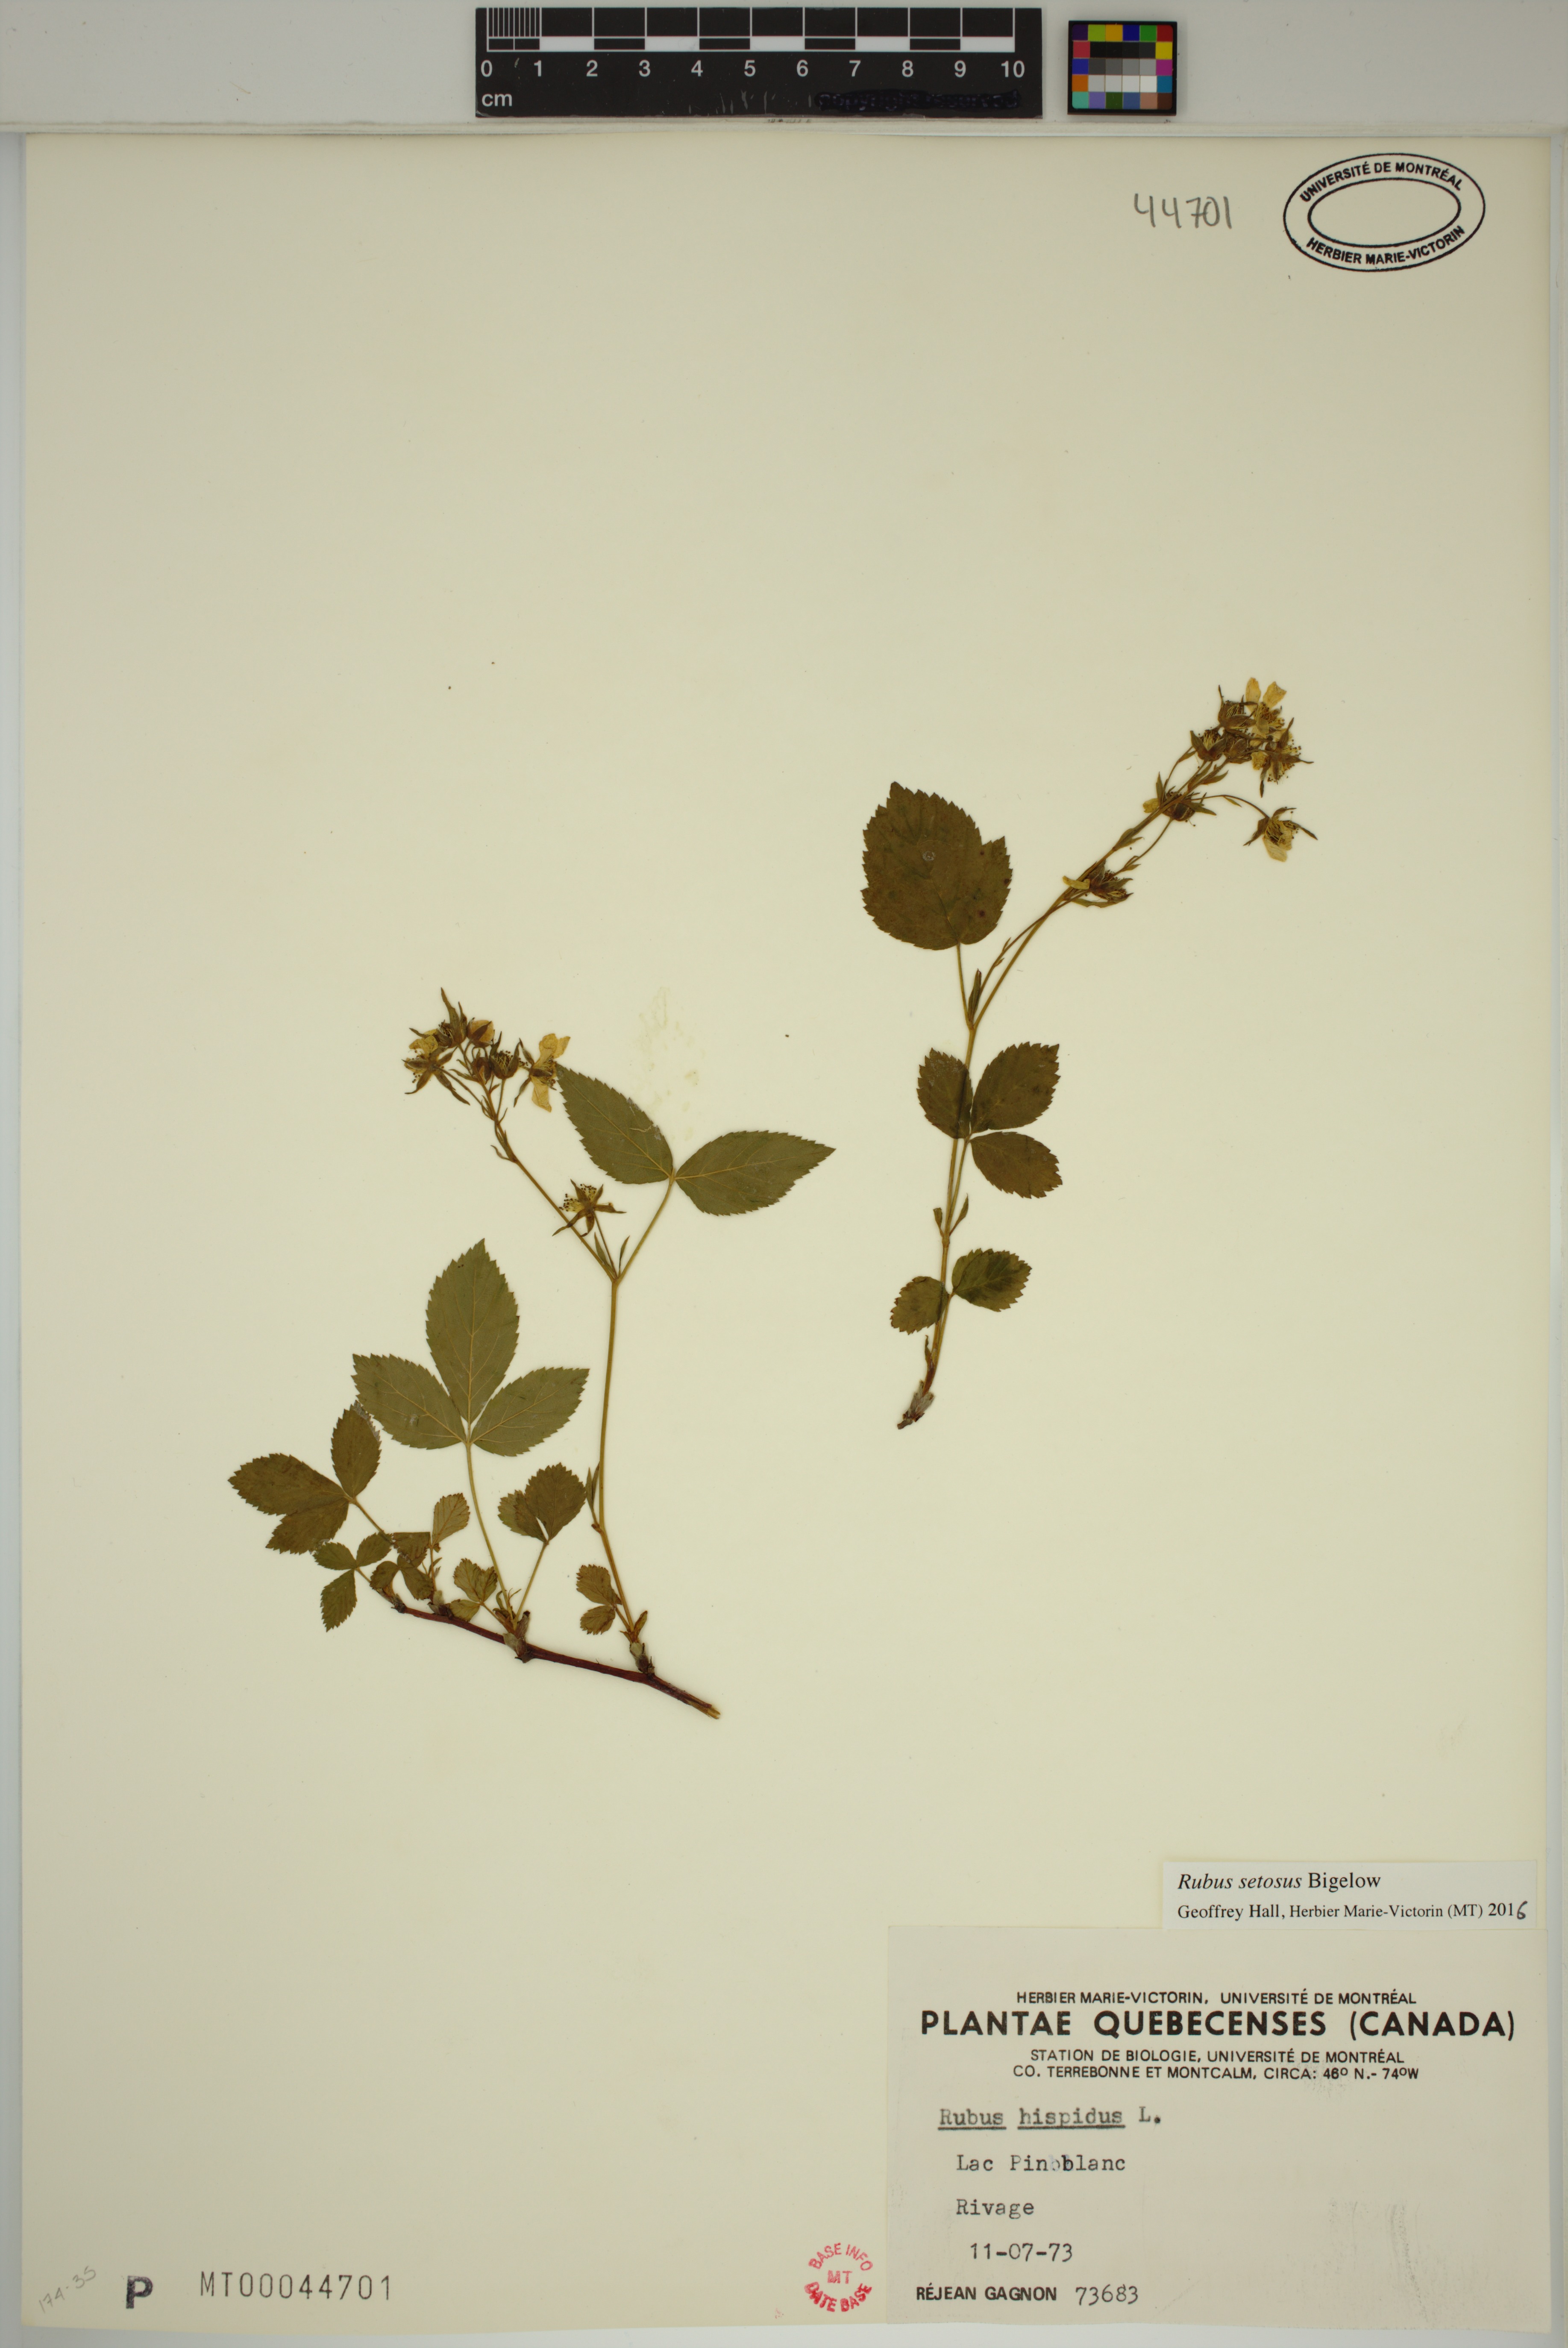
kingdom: Plantae
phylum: Tracheophyta
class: Magnoliopsida
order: Rosales
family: Rosaceae
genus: Rubus
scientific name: Rubus setosus
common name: Bristly blackberry
